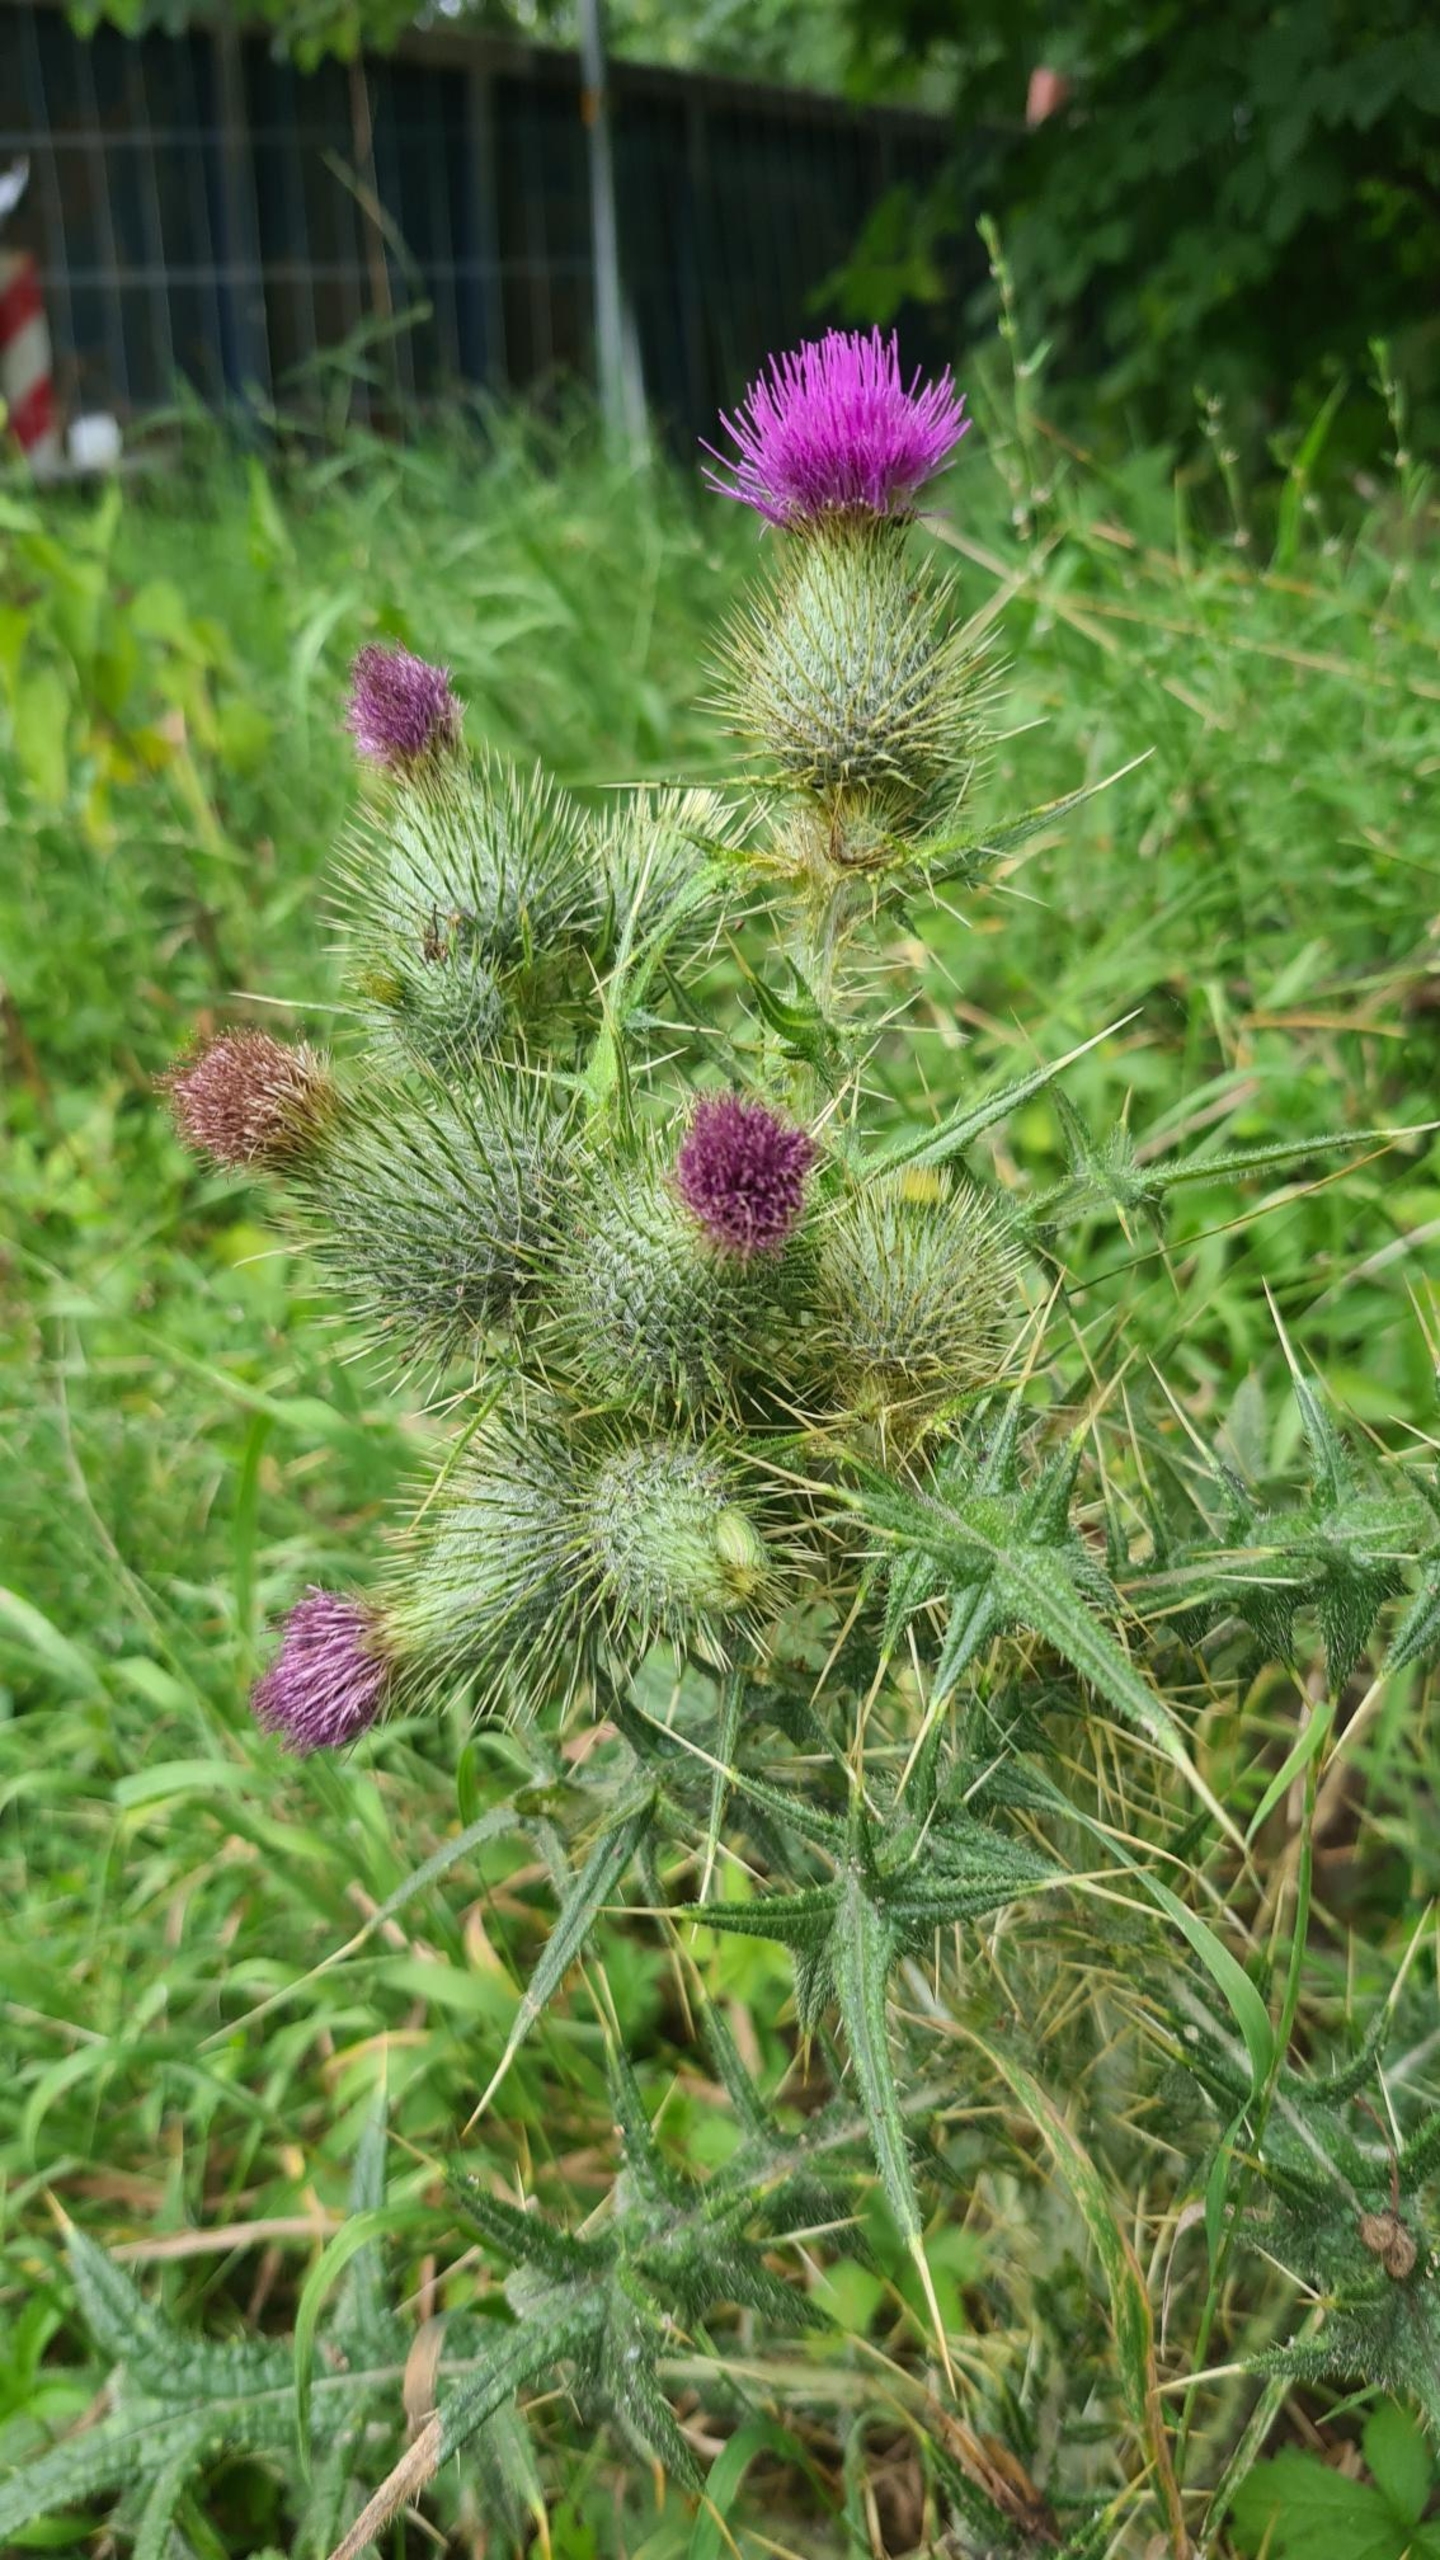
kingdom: Plantae
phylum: Tracheophyta
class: Magnoliopsida
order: Asterales
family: Asteraceae
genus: Cirsium
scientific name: Cirsium vulgare
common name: Horse-tidsel
